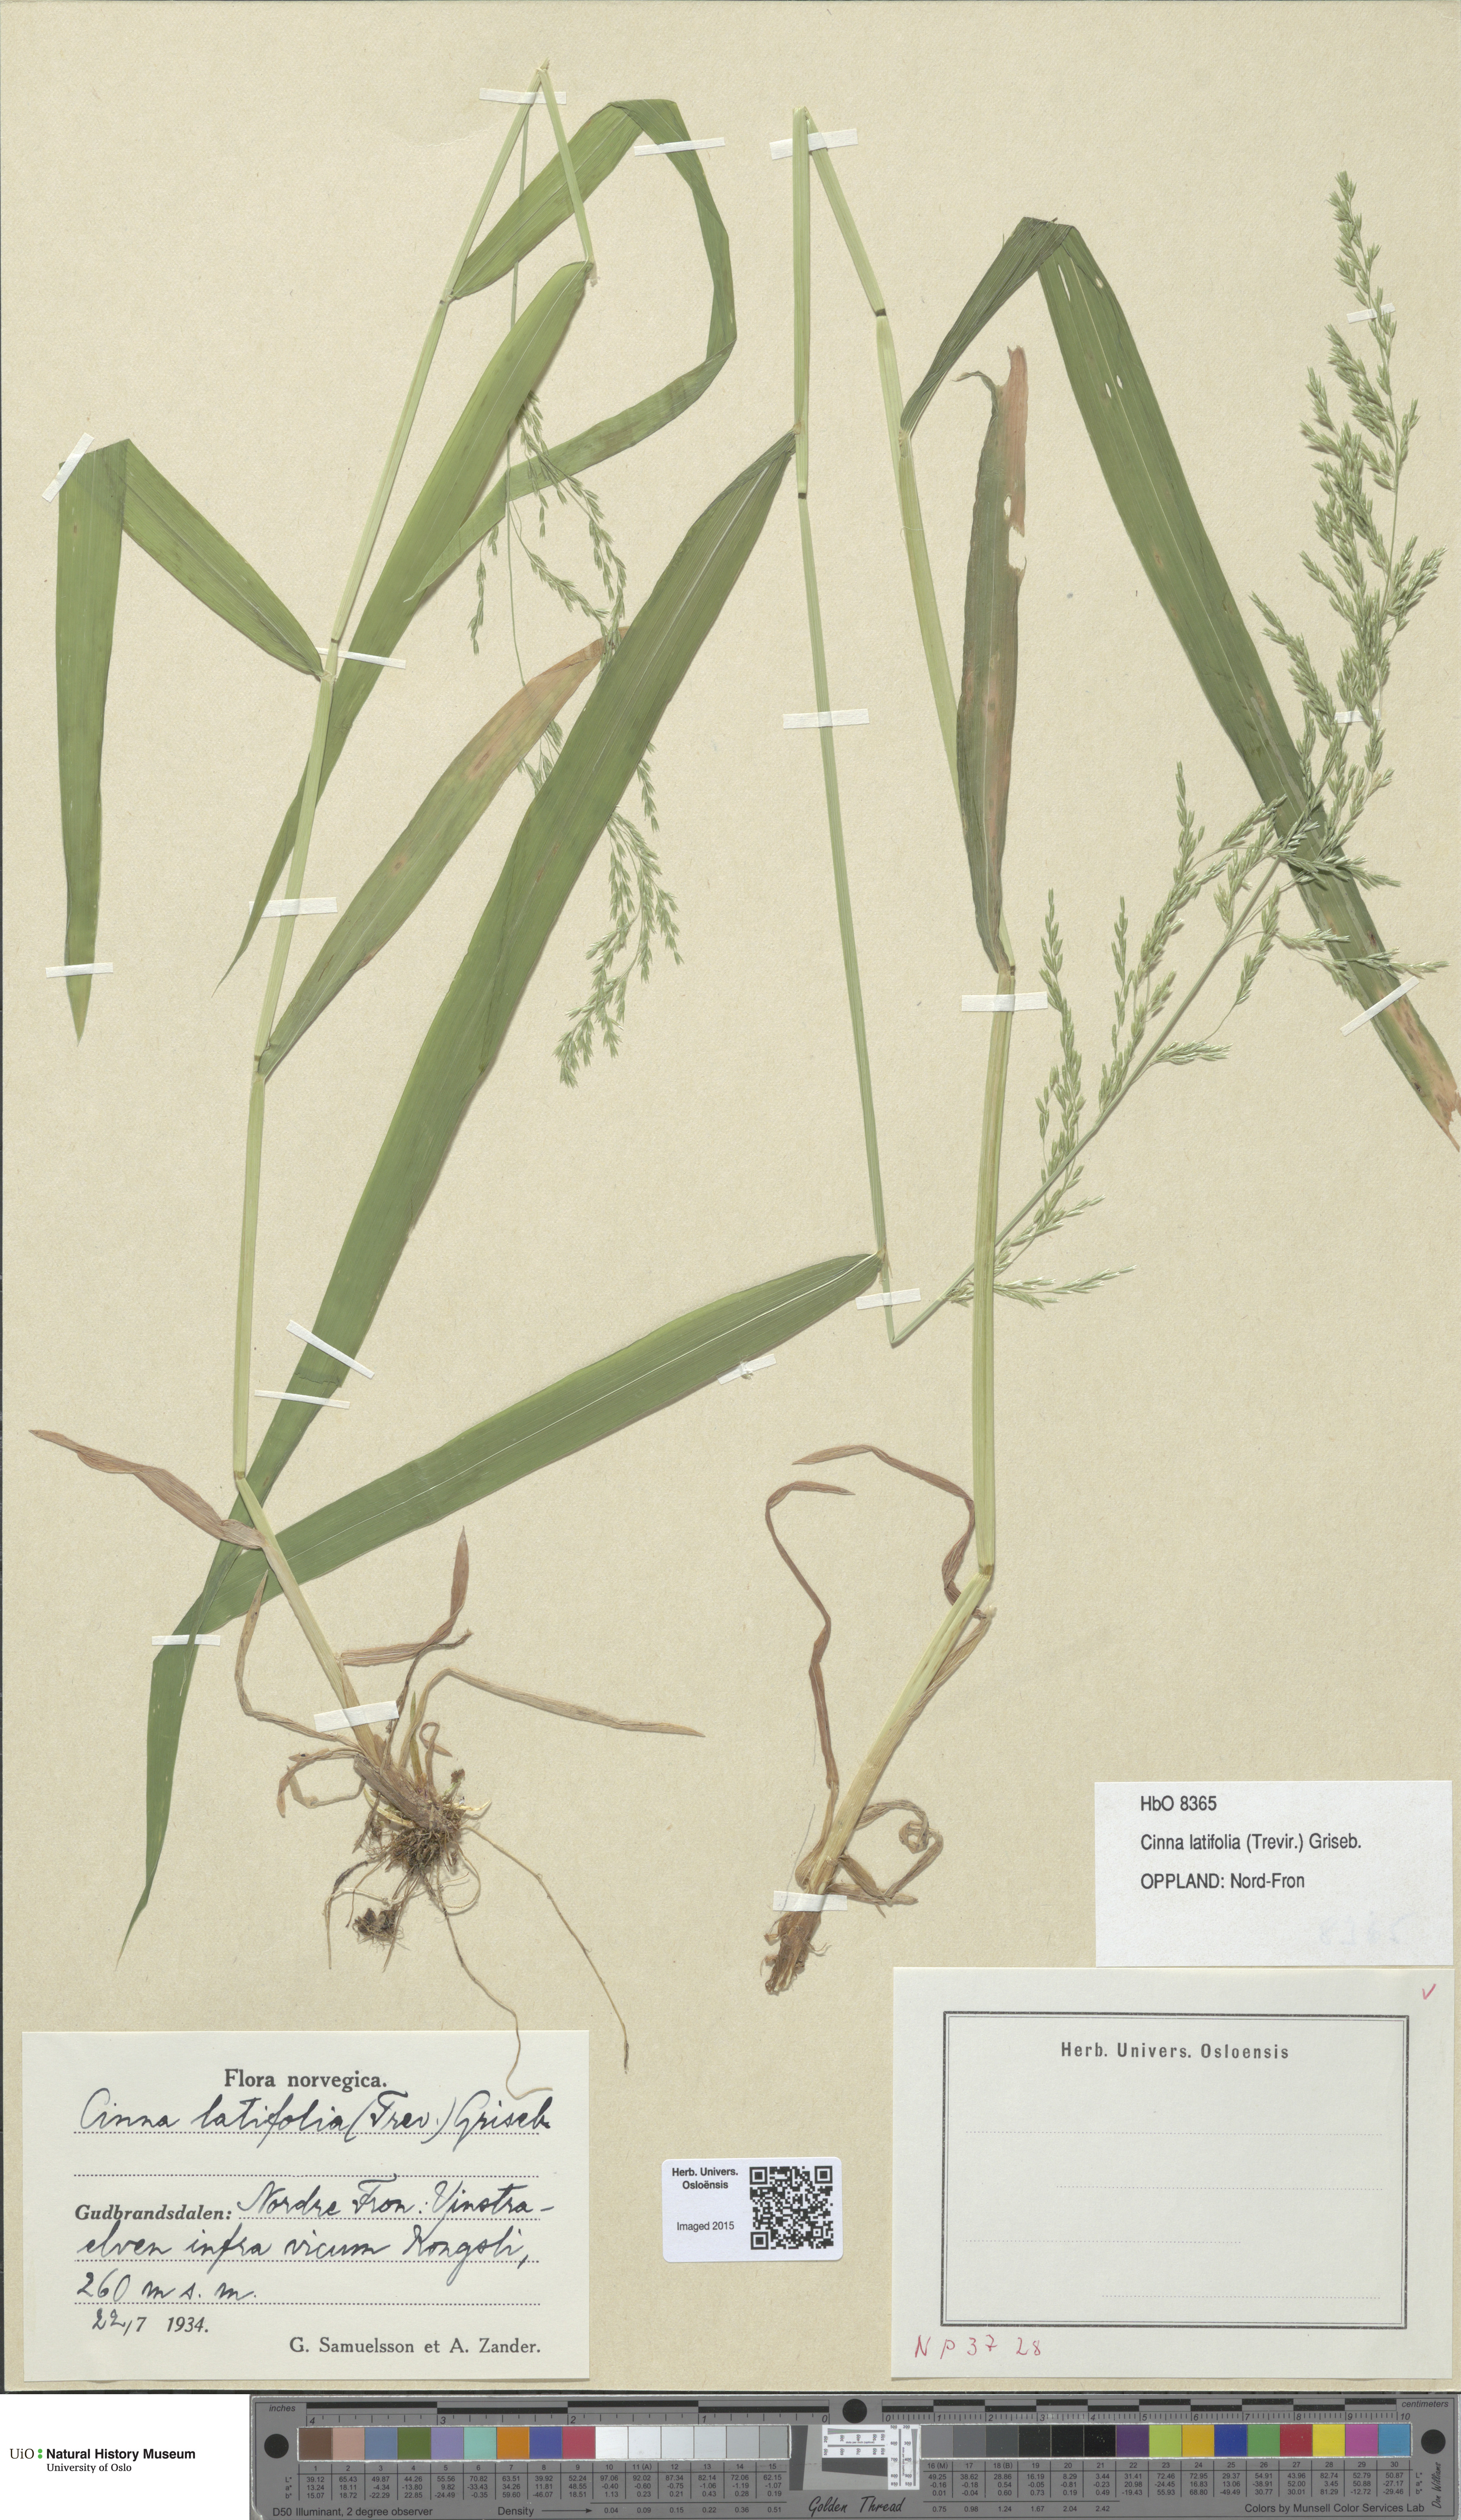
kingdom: Plantae
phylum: Tracheophyta
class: Liliopsida
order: Poales
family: Poaceae
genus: Cinna
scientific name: Cinna latifolia
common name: Drooping woodreed
